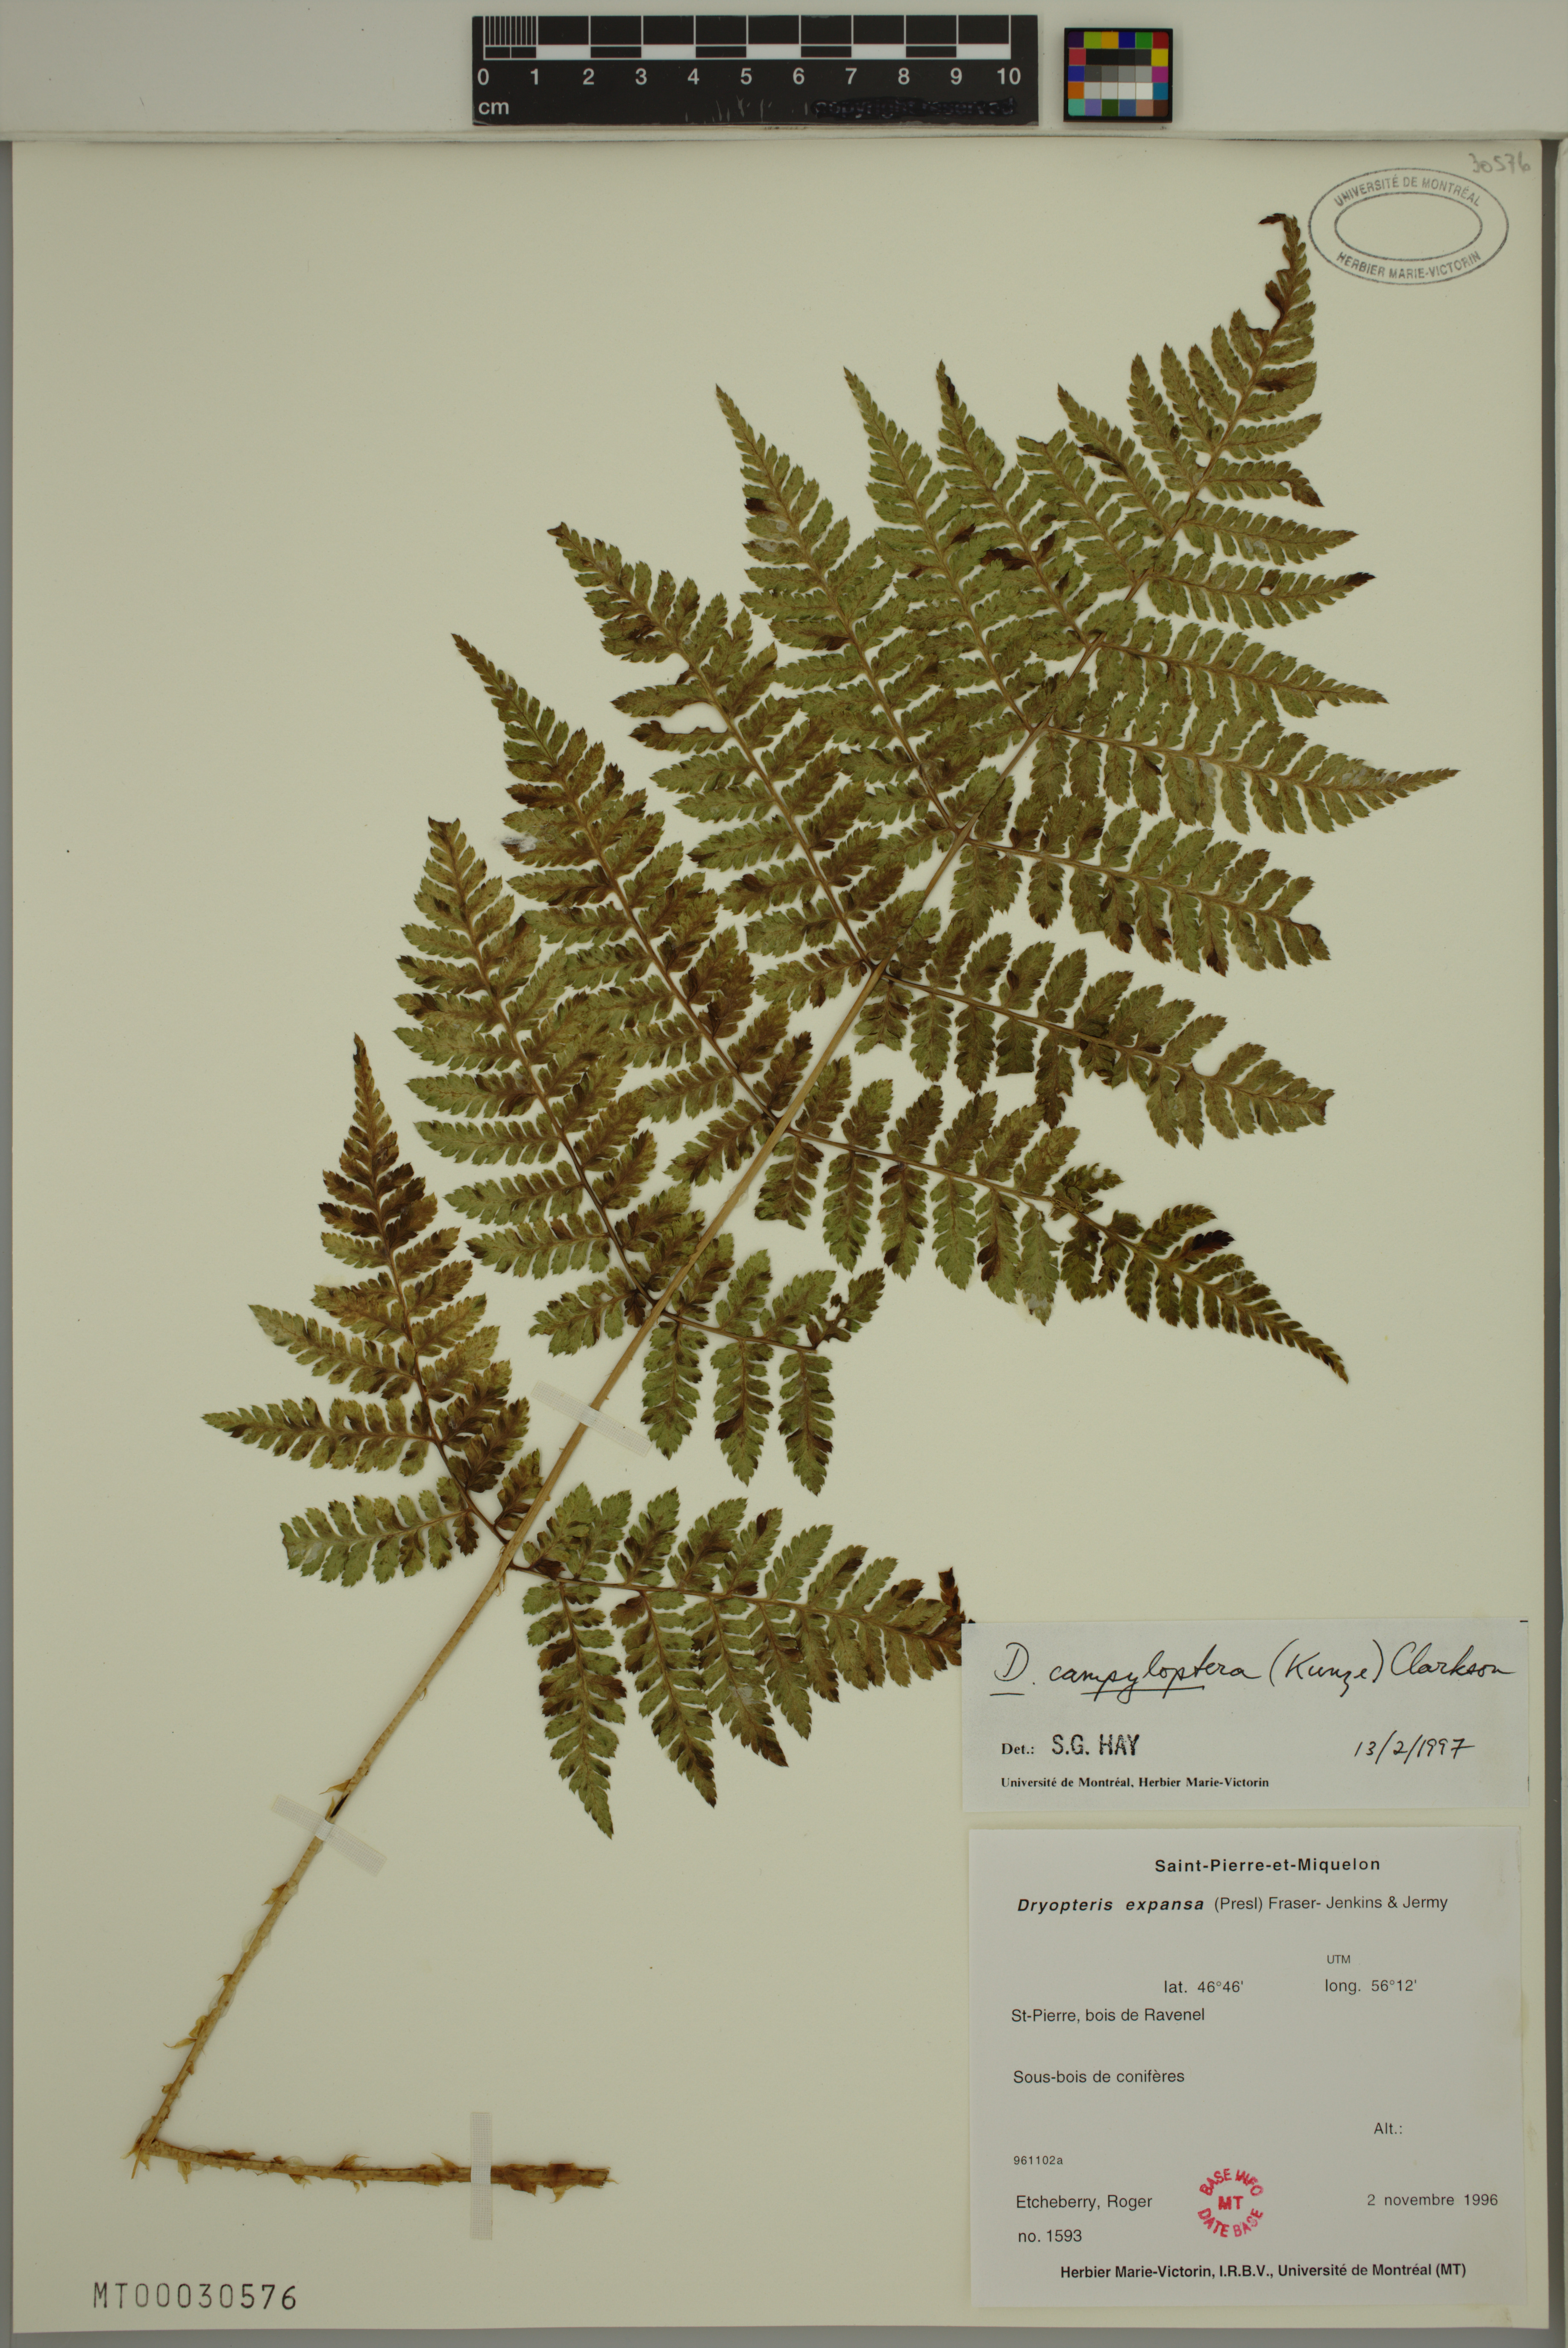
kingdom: Plantae
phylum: Tracheophyta
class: Polypodiopsida
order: Polypodiales
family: Dryopteridaceae
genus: Dryopteris
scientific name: Dryopteris campyloptera
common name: Mountain wood fern
